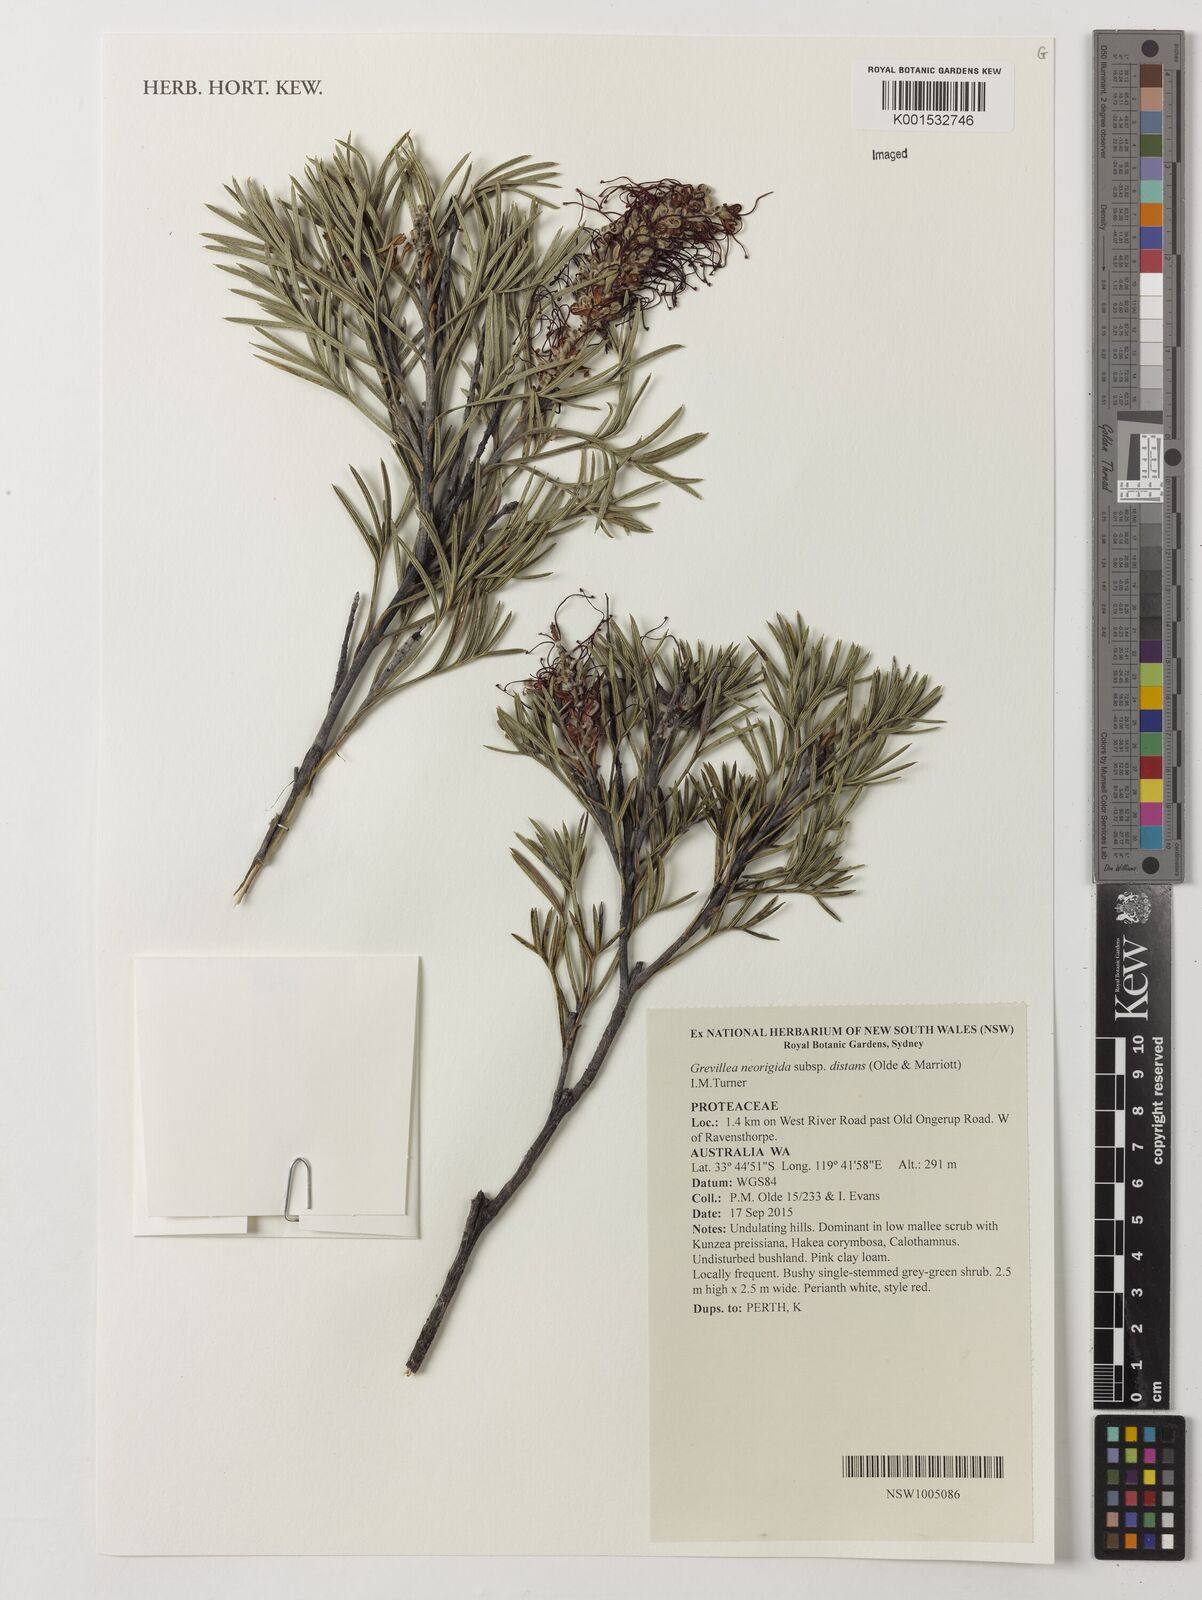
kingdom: Plantae
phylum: Tracheophyta
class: Magnoliopsida
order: Proteales
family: Proteaceae
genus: Grevillea
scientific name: Grevillea neorigida
